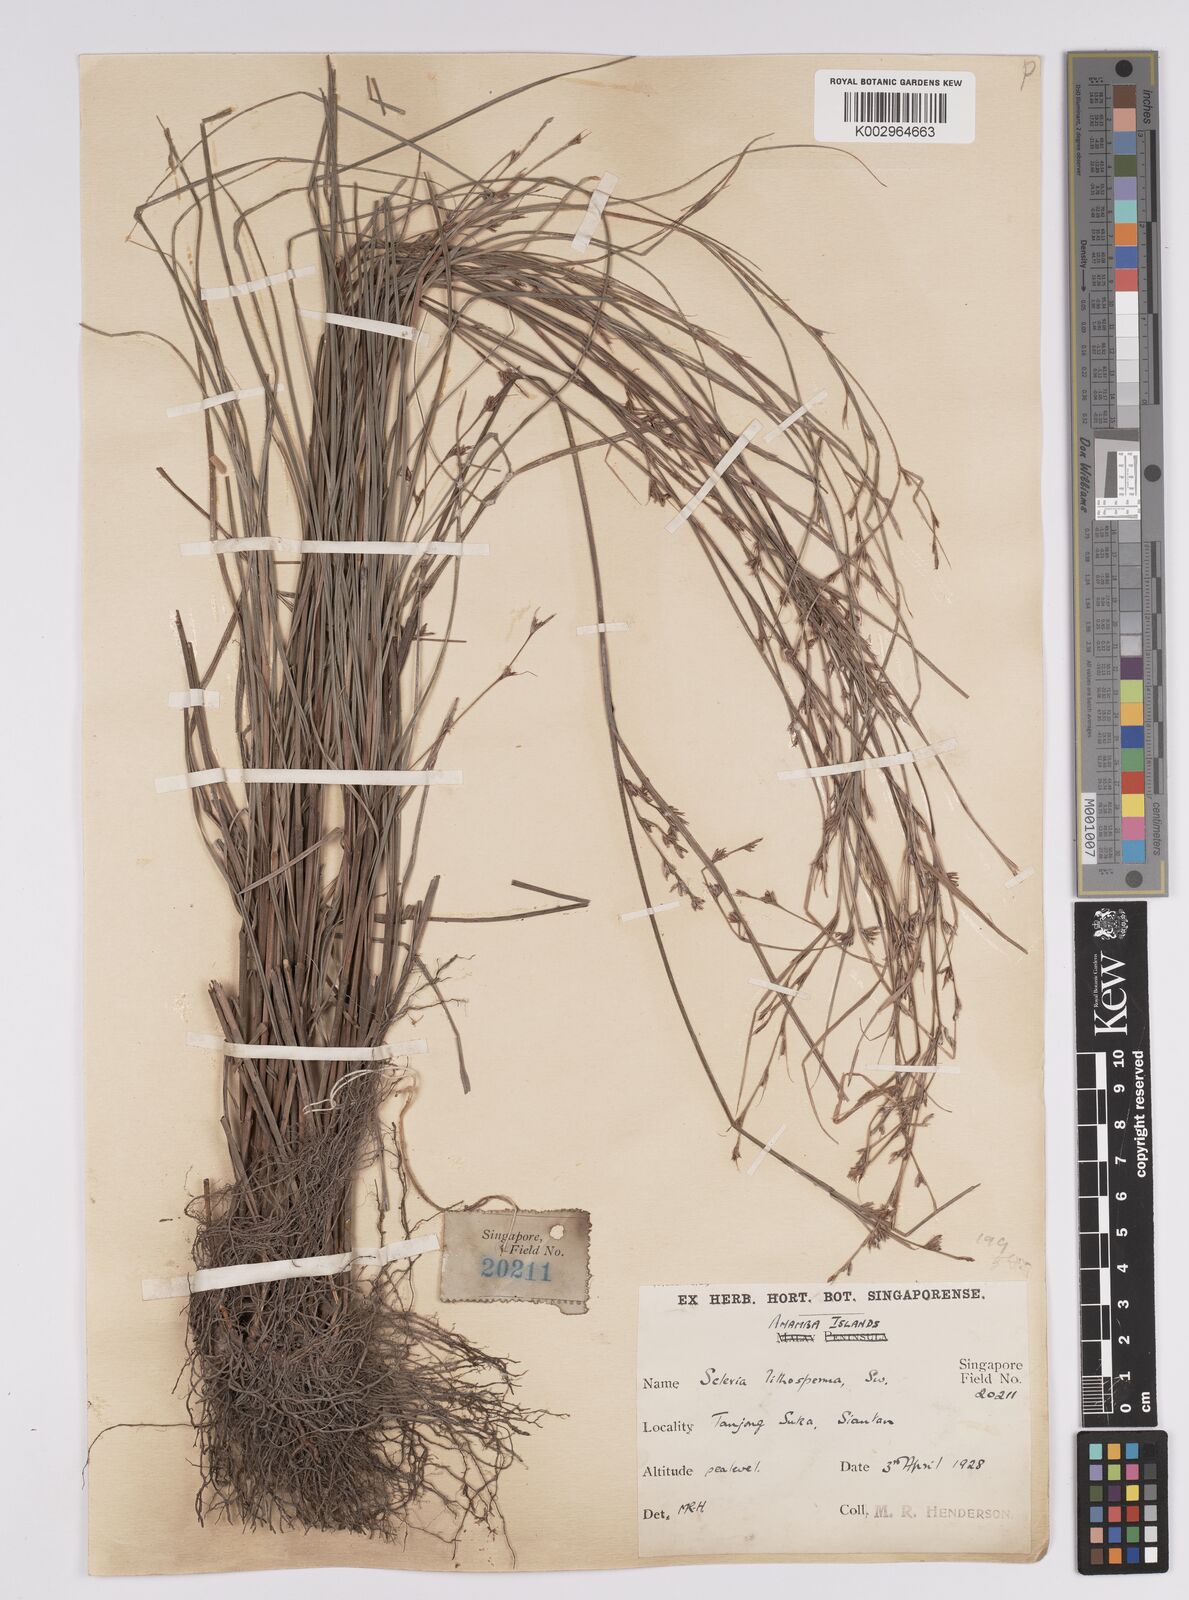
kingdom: Plantae
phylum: Tracheophyta
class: Liliopsida
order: Poales
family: Cyperaceae
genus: Scleria
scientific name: Scleria lithosperma
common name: Florida keys nut-rush
